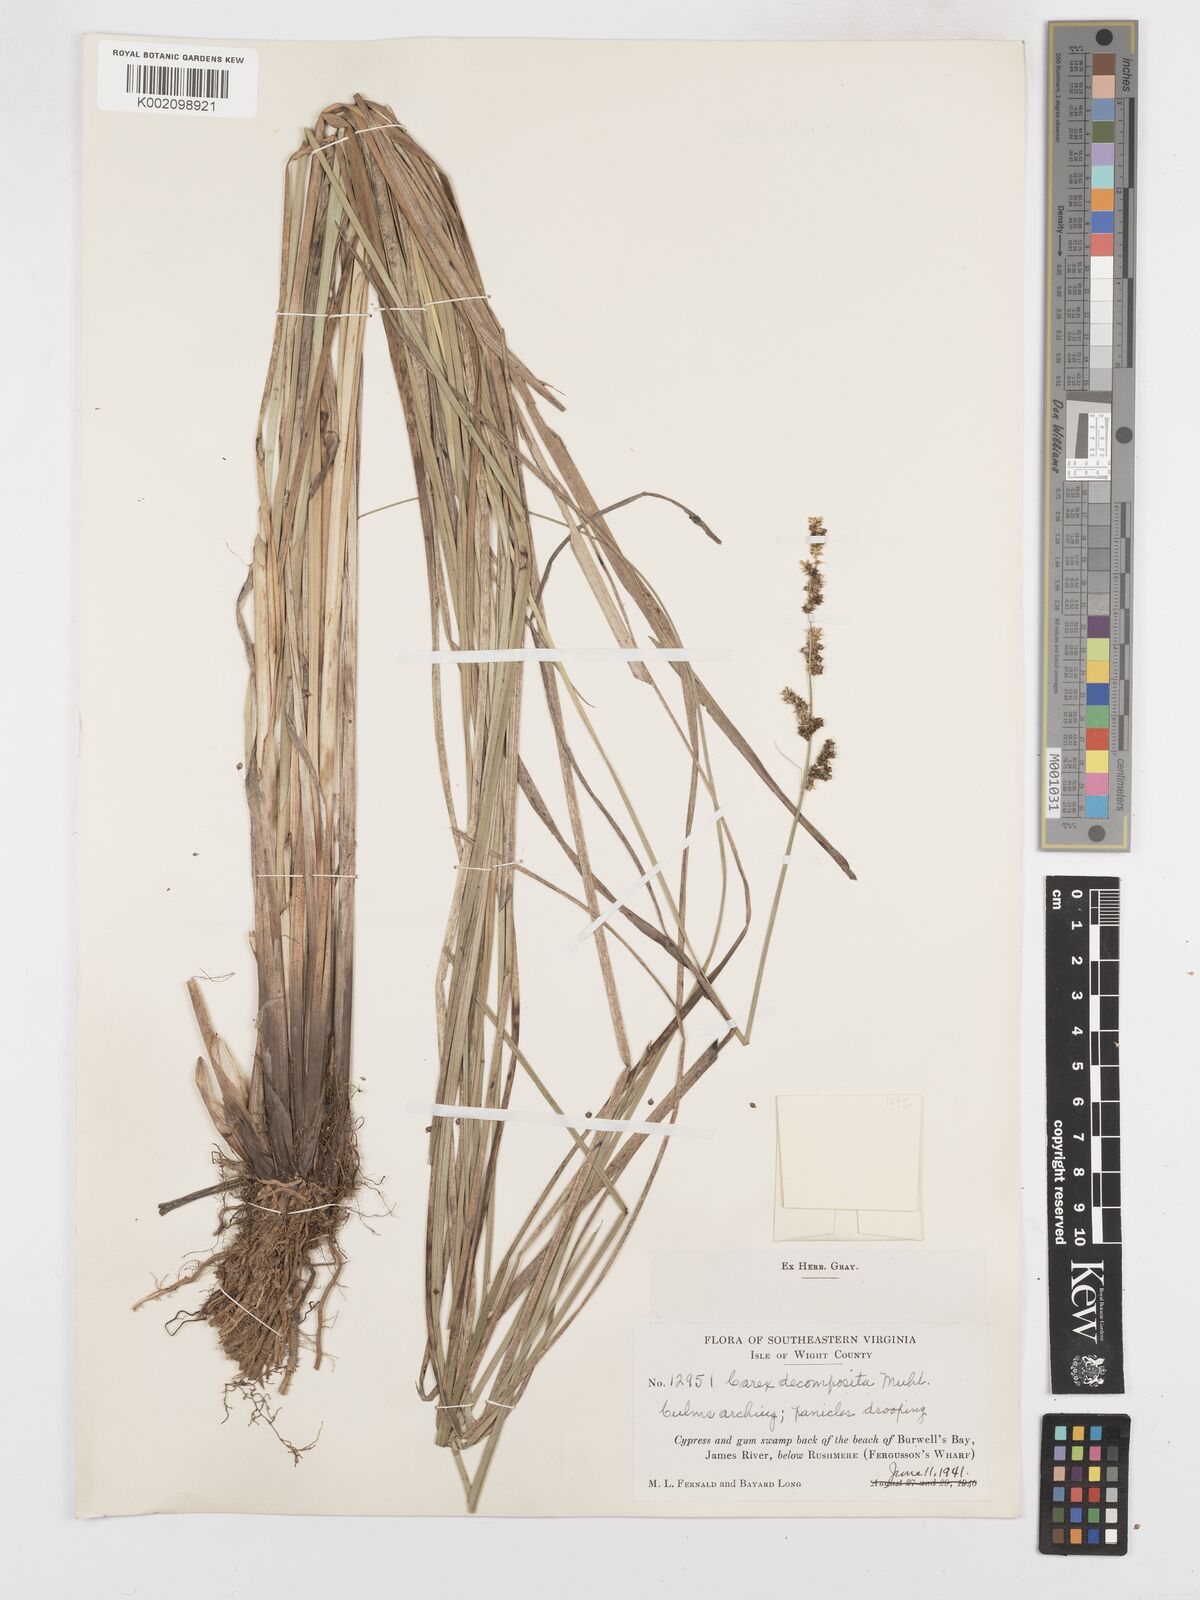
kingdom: Plantae
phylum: Tracheophyta
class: Liliopsida
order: Poales
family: Cyperaceae
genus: Carex
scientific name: Carex decomposita
